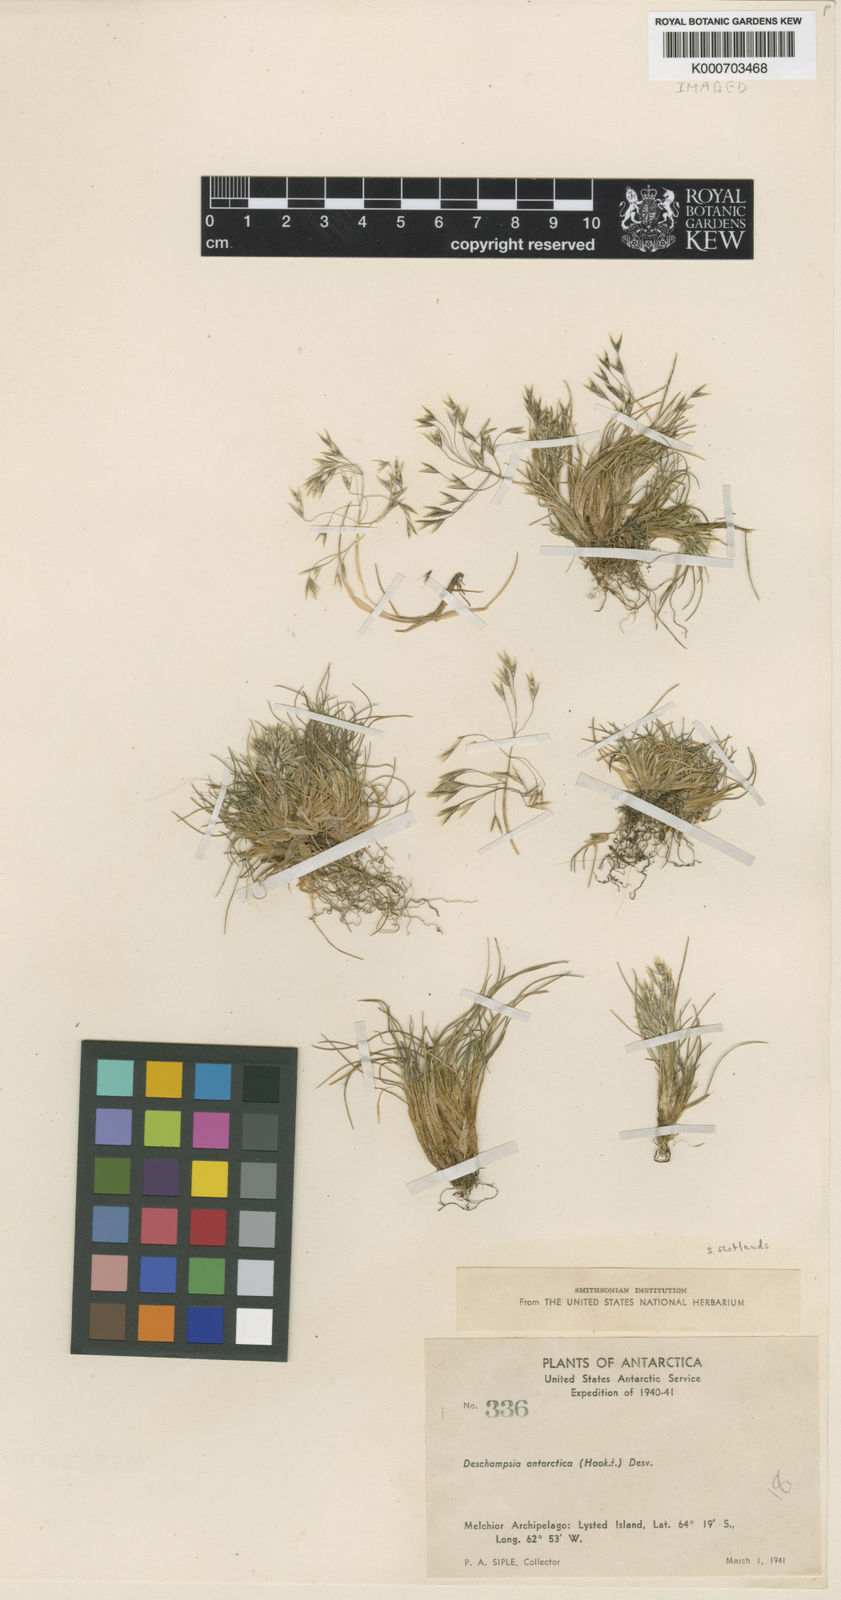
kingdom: Plantae
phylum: Tracheophyta
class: Liliopsida
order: Poales
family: Poaceae
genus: Deschampsia
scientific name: Deschampsia antarctica
